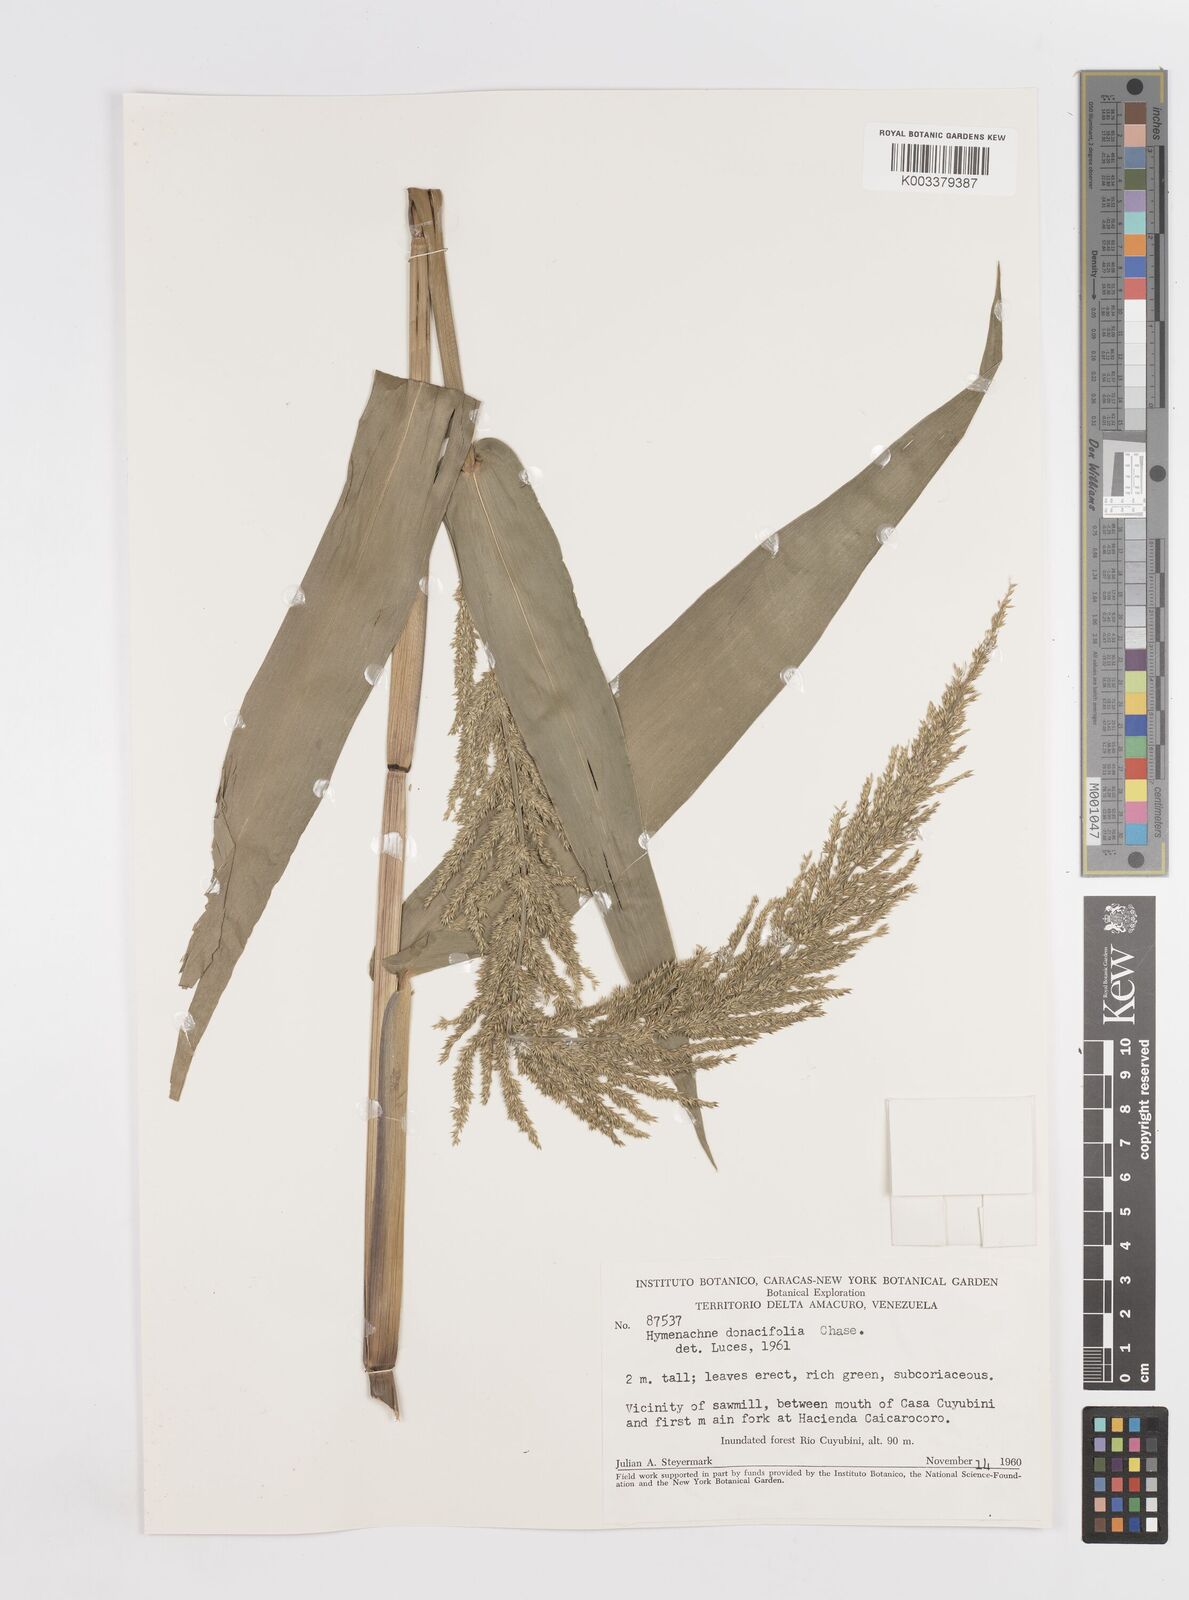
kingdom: Plantae
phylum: Tracheophyta
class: Liliopsida
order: Poales
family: Poaceae
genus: Hymenachne
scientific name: Hymenachne donacifolia
